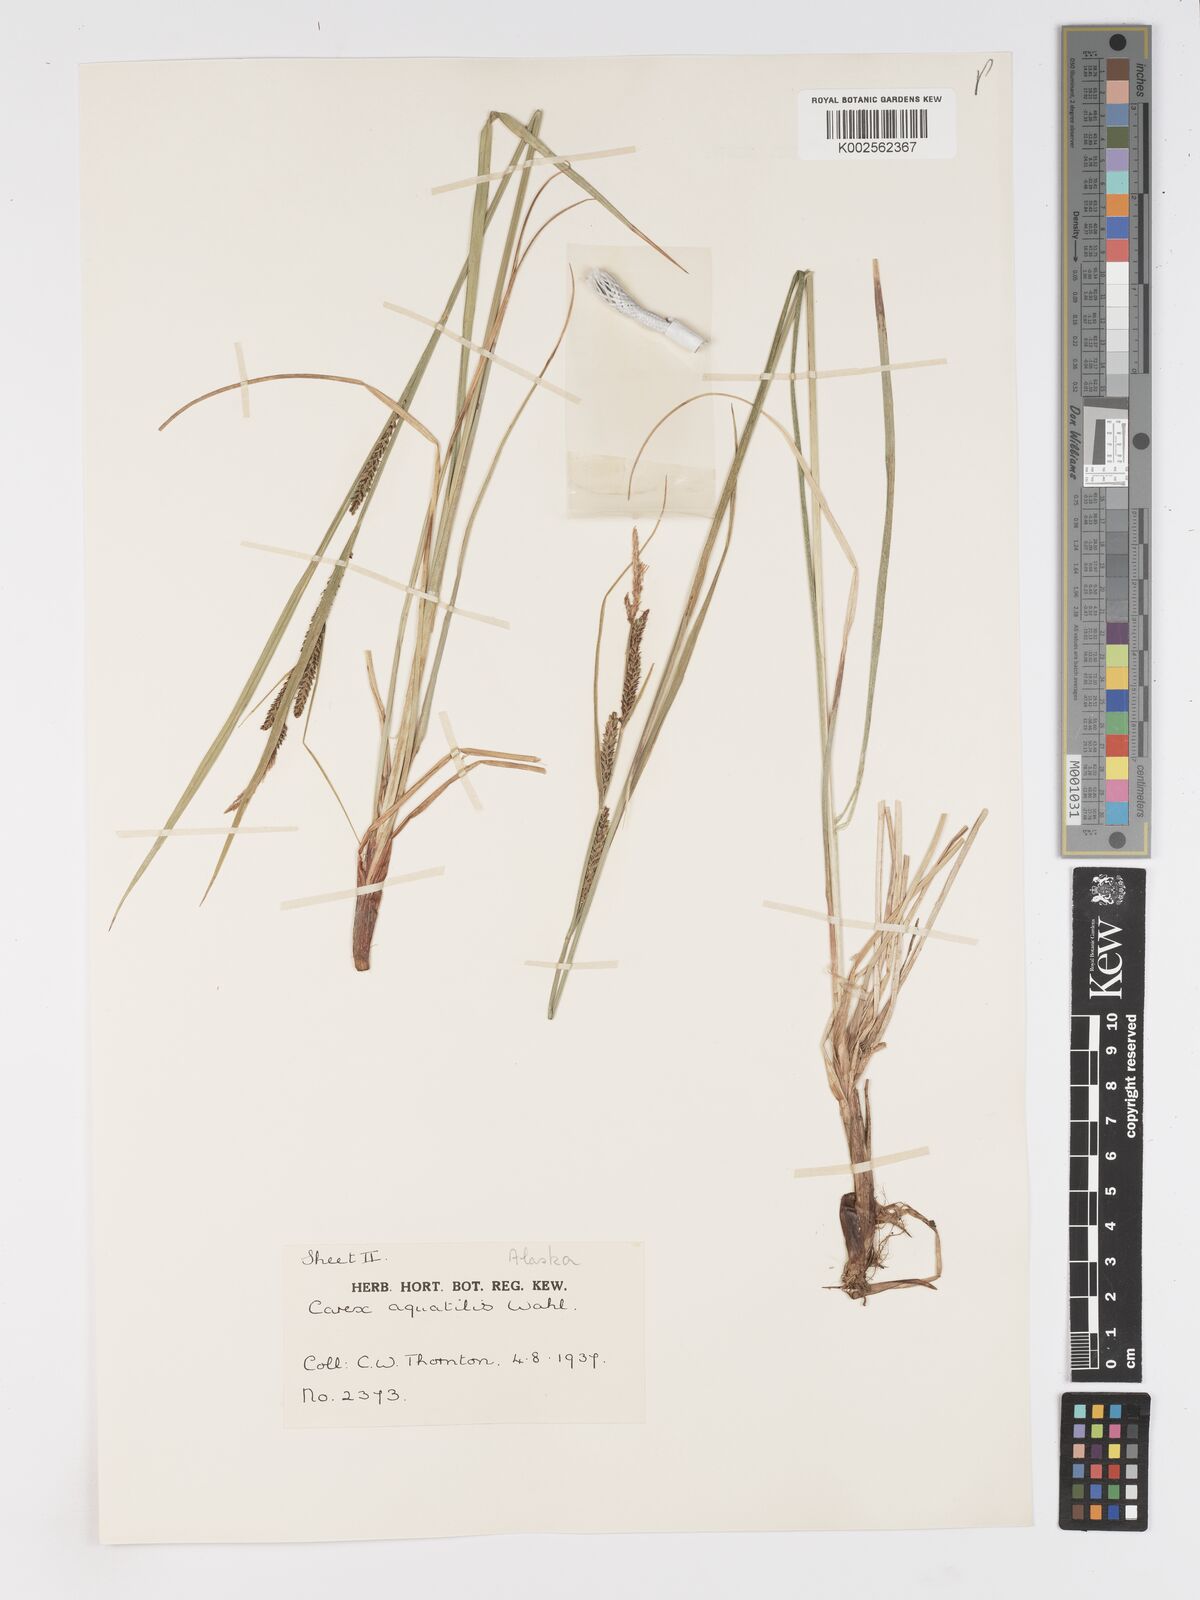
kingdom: Plantae
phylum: Tracheophyta
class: Liliopsida
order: Poales
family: Cyperaceae
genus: Carex
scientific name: Carex aquatilis
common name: Water sedge
